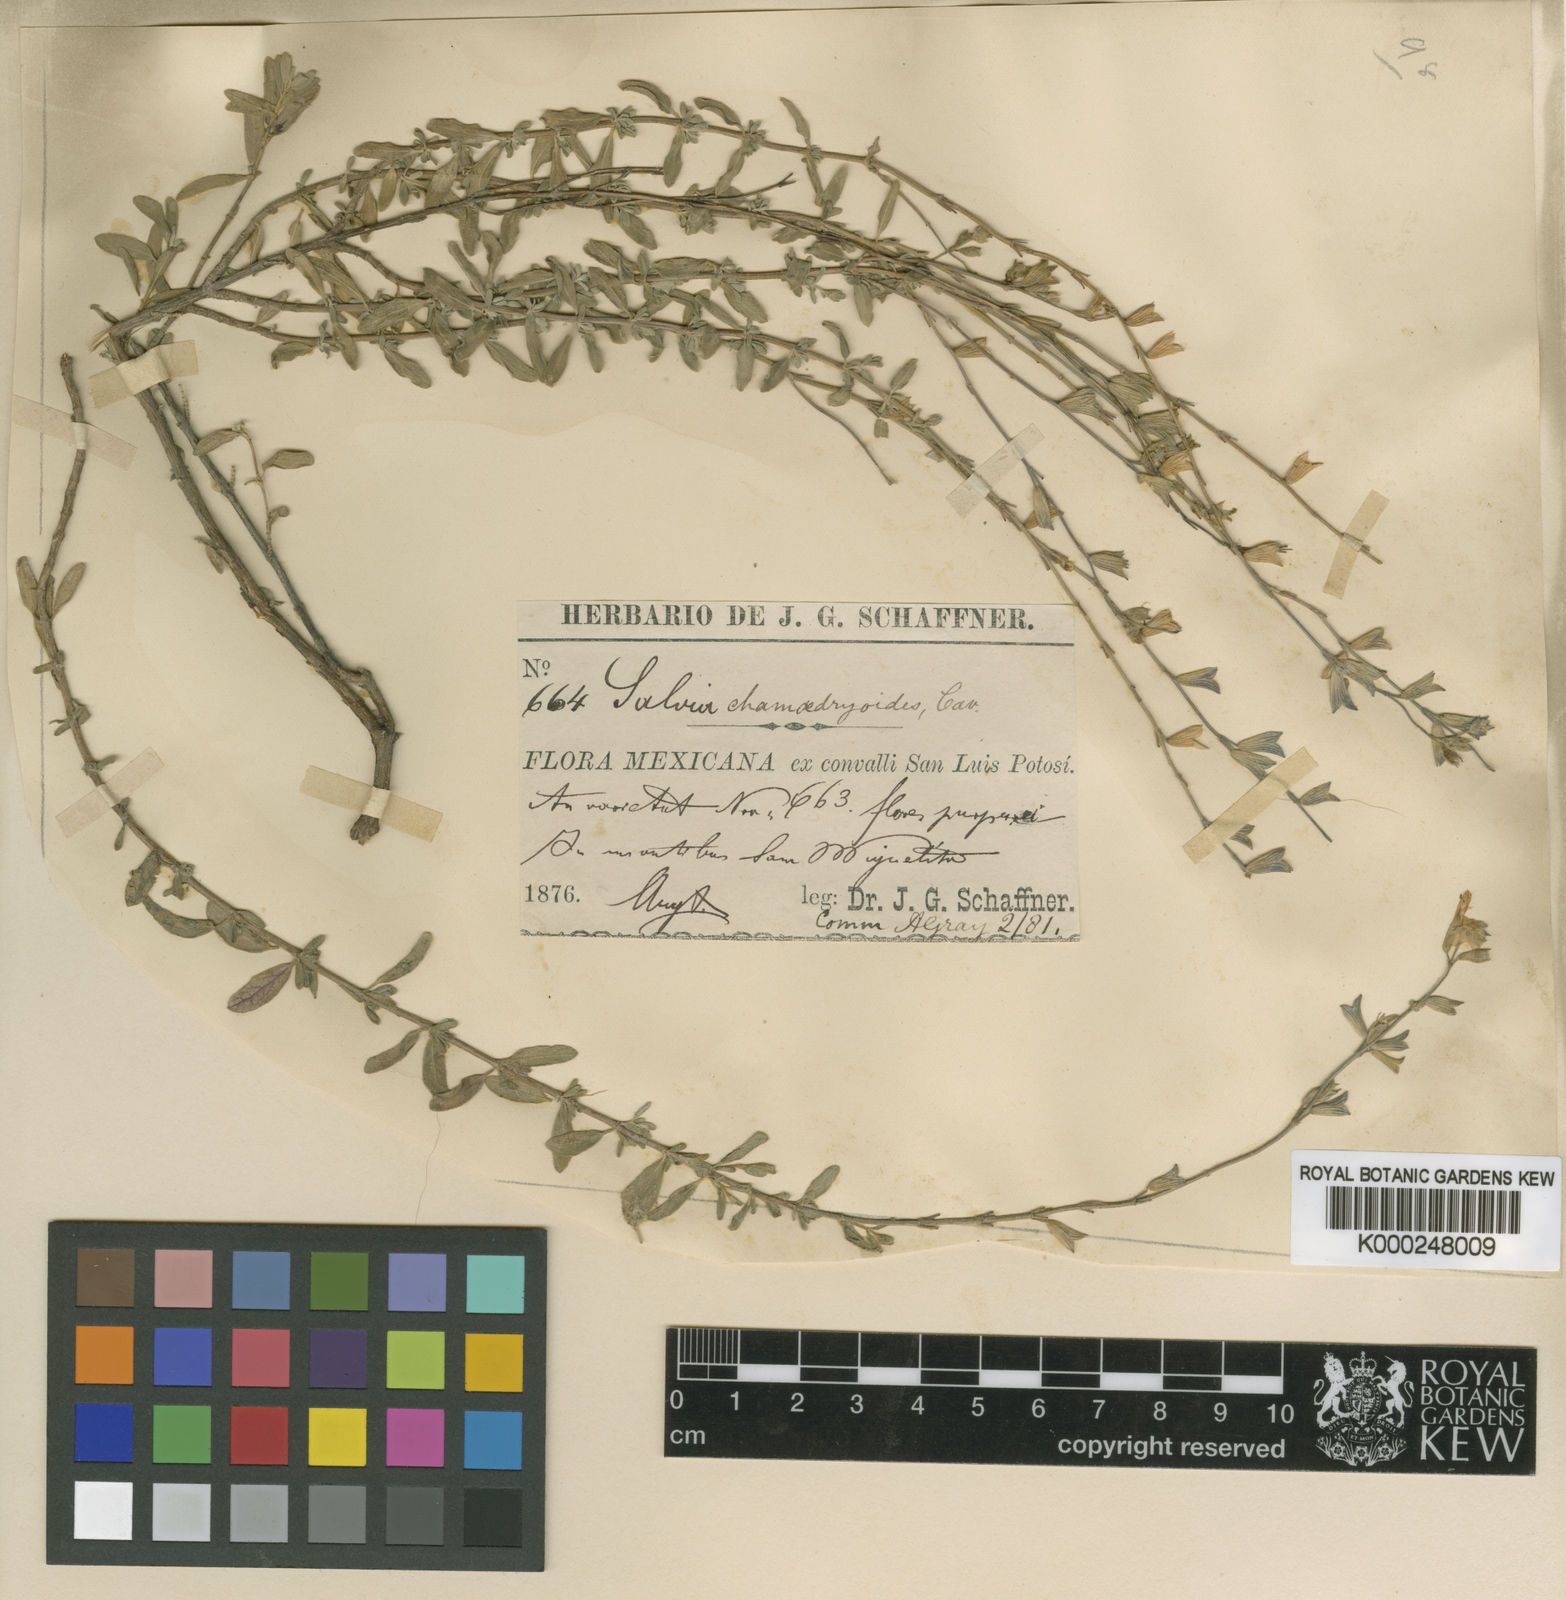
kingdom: Plantae
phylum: Tracheophyta
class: Magnoliopsida
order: Lamiales
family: Lamiaceae
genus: Salvia
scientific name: Salvia
